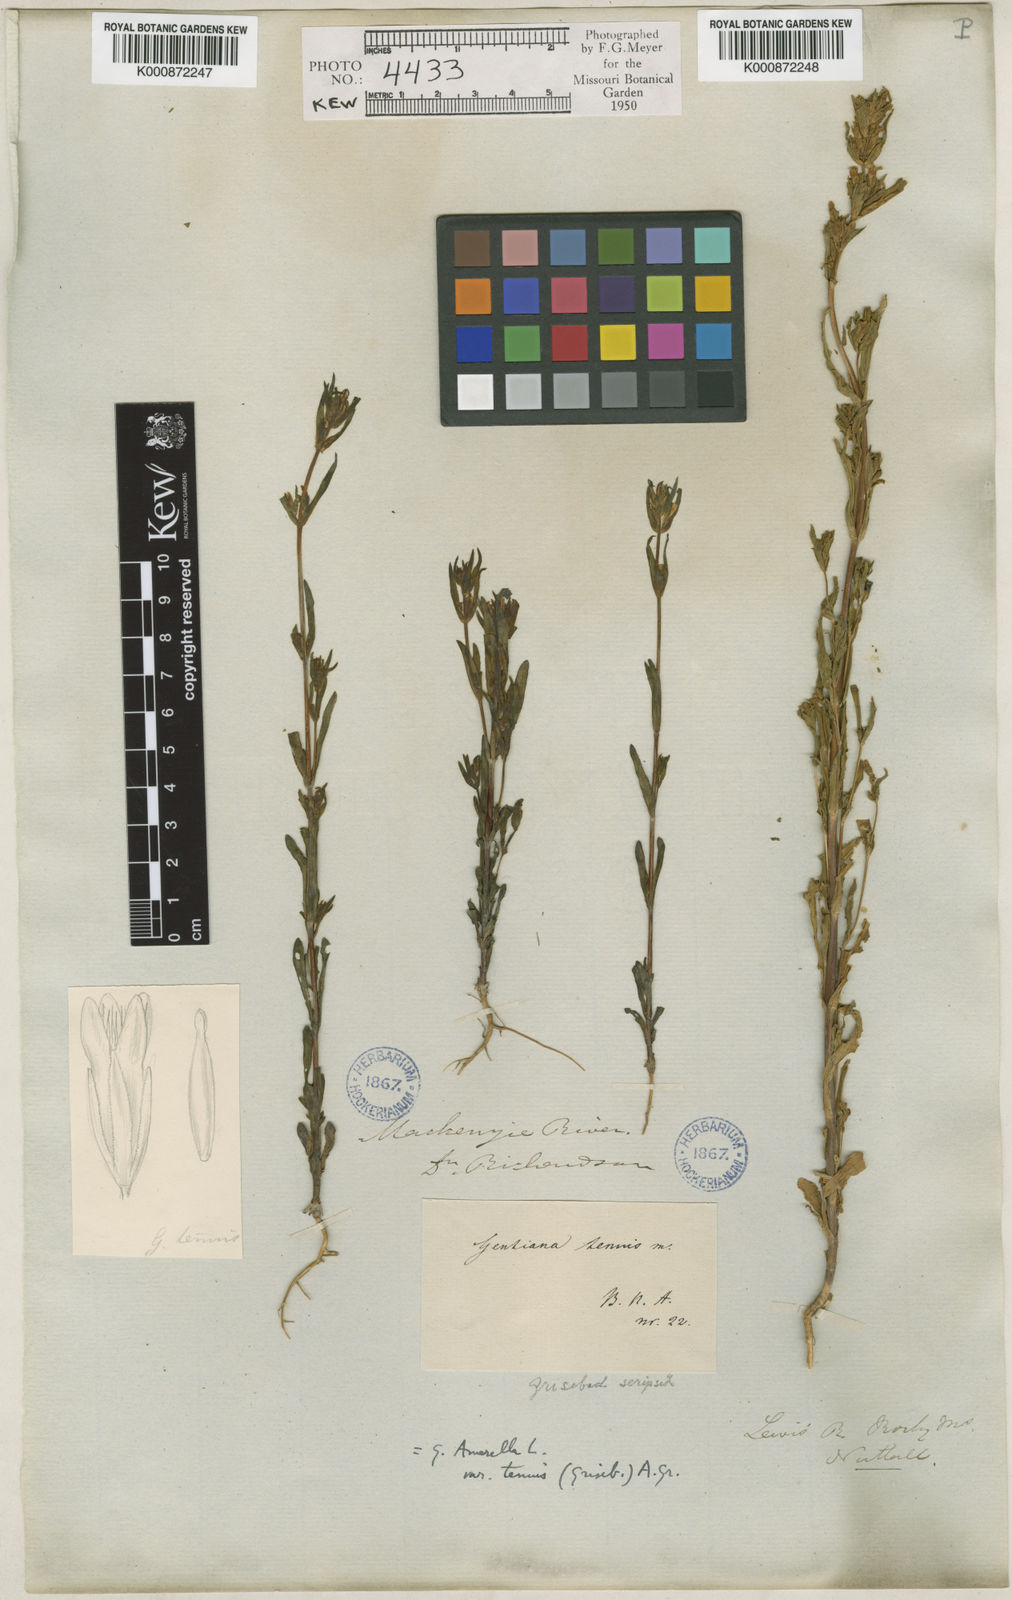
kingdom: Plantae
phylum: Tracheophyta
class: Magnoliopsida
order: Gentianales
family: Gentianaceae
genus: Gentianella
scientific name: Gentianella
